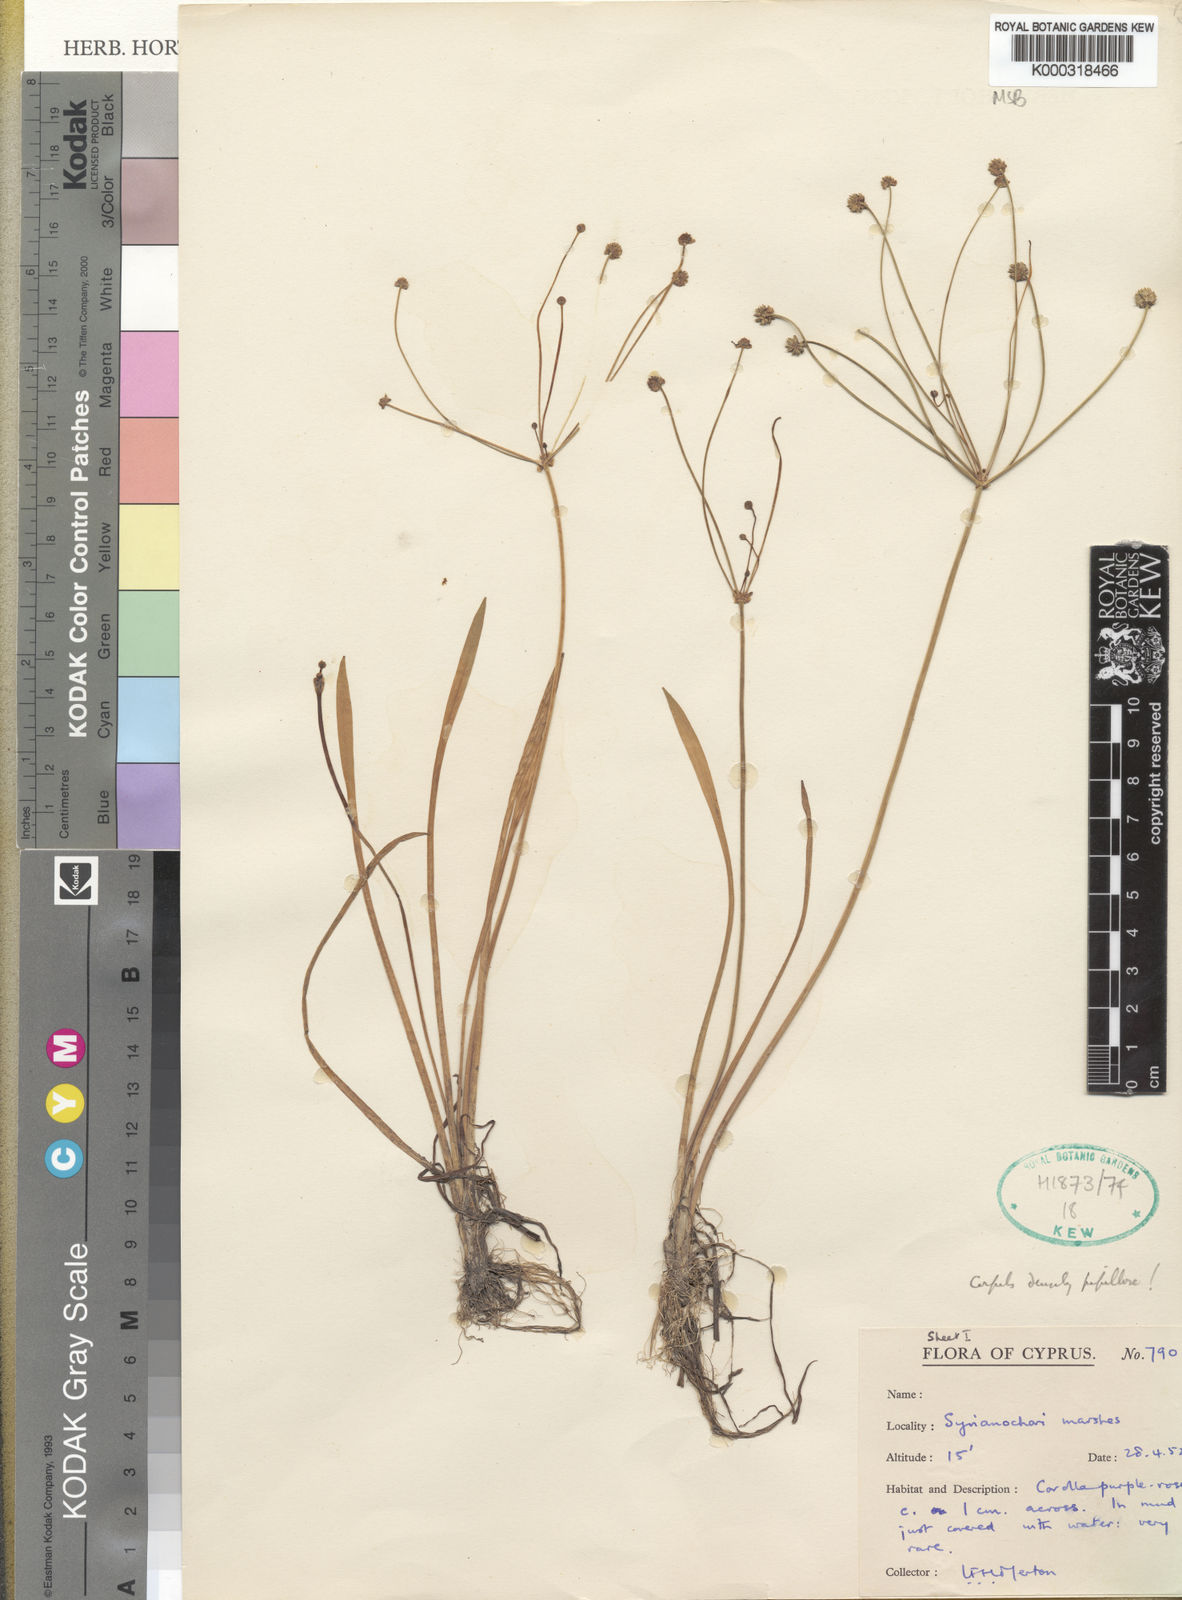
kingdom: Plantae
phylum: Tracheophyta
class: Liliopsida
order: Alismatales
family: Alismataceae
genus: Baldellia
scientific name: Baldellia ranunculoides
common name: Lesser water-plantain
